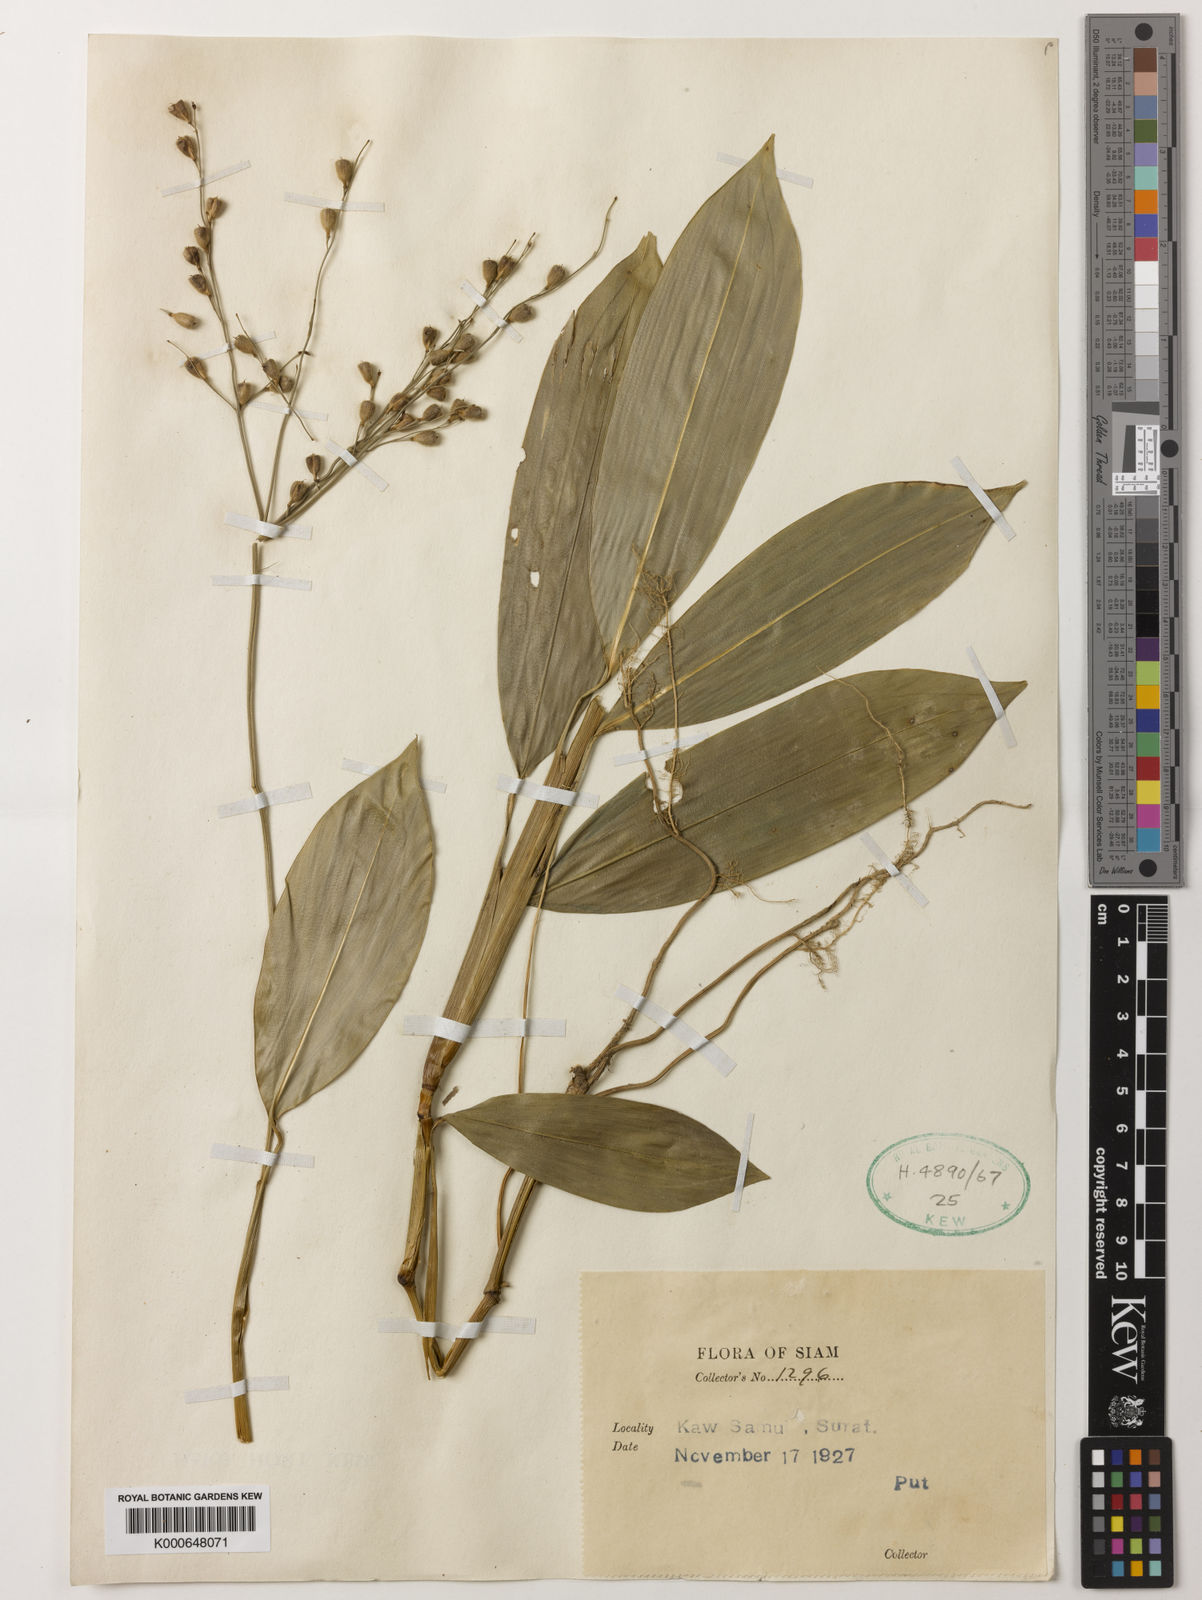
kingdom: Plantae
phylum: Tracheophyta
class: Liliopsida
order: Poales
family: Poaceae
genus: Scrotochloa
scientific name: Scrotochloa urceolata
